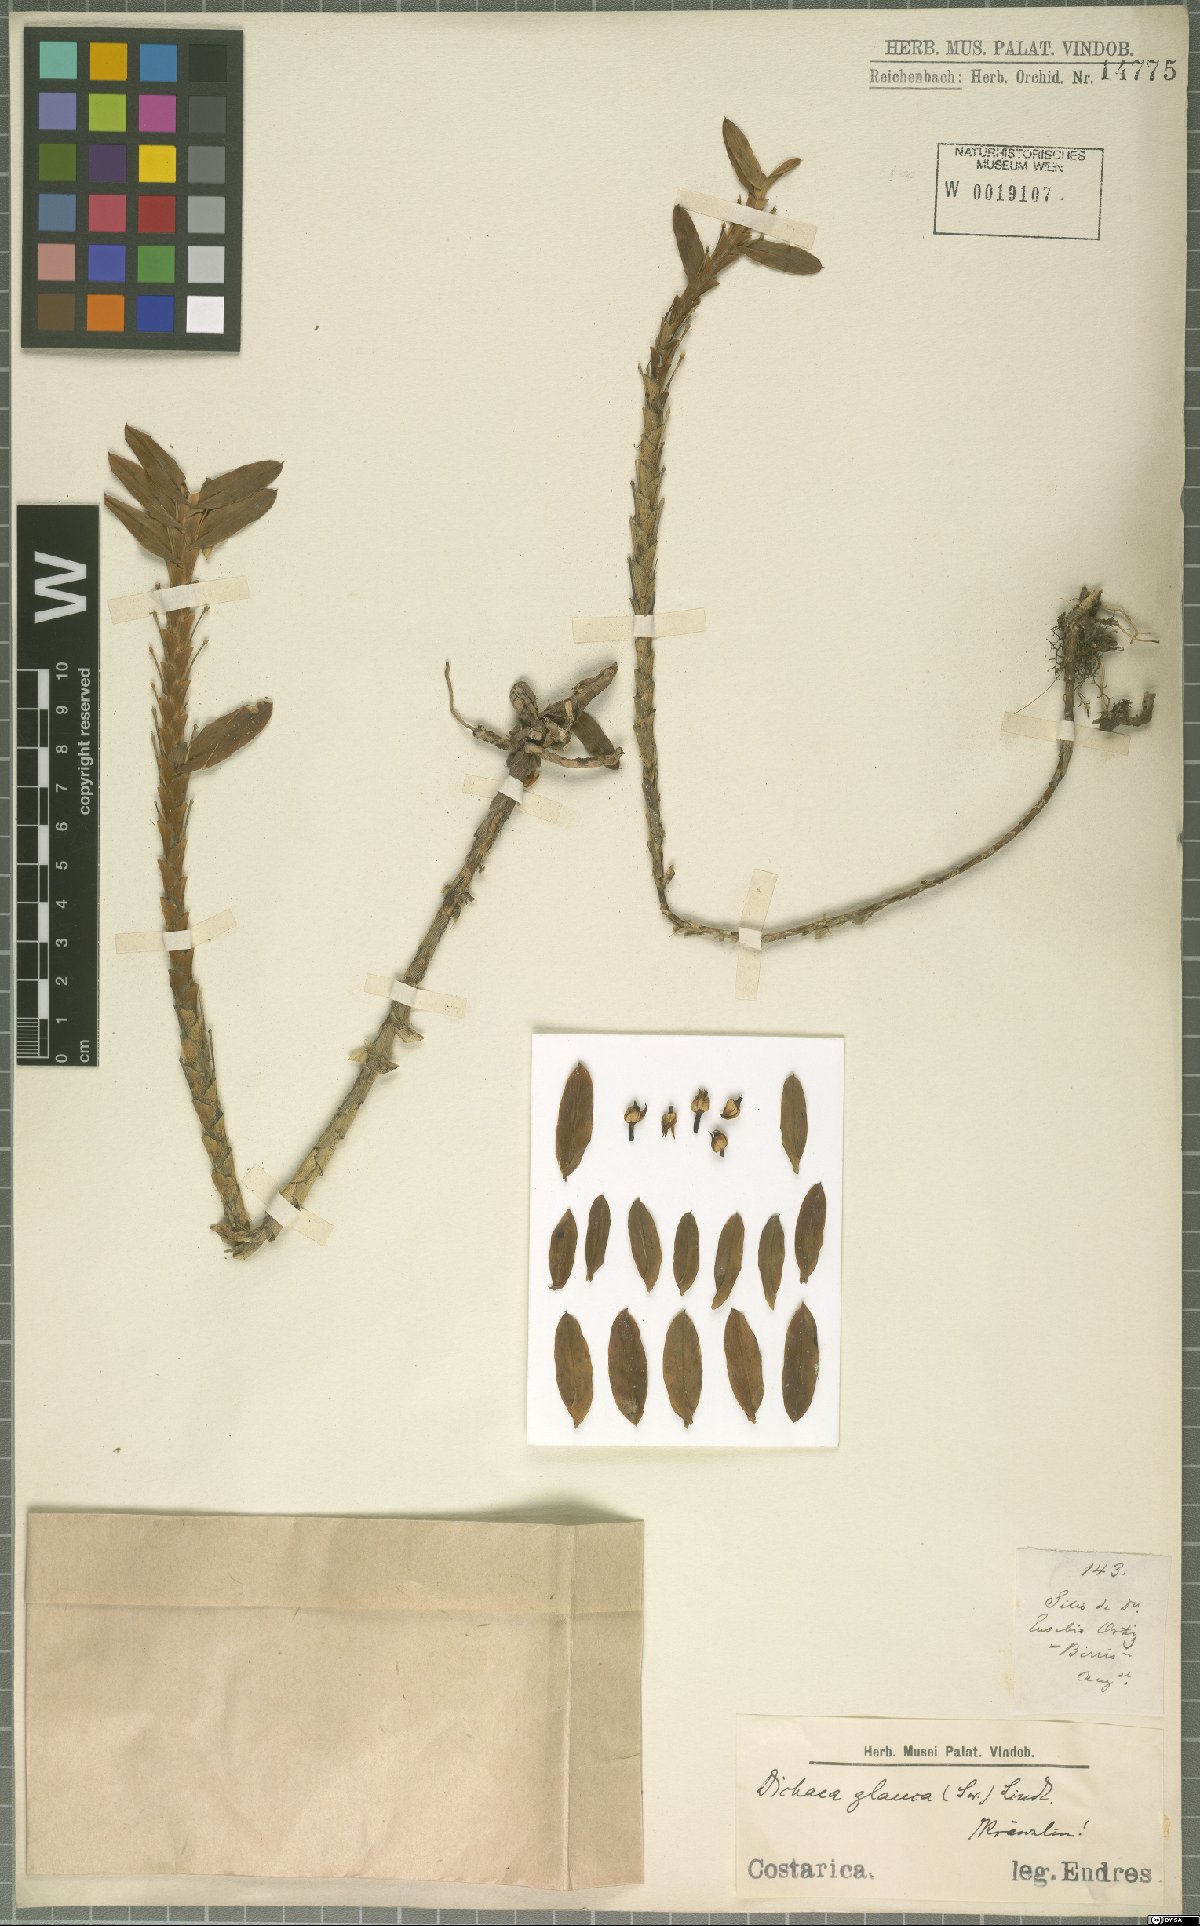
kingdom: Plantae
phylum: Tracheophyta
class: Liliopsida
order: Asparagales
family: Orchidaceae
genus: Dichaea
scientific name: Dichaea glauca
